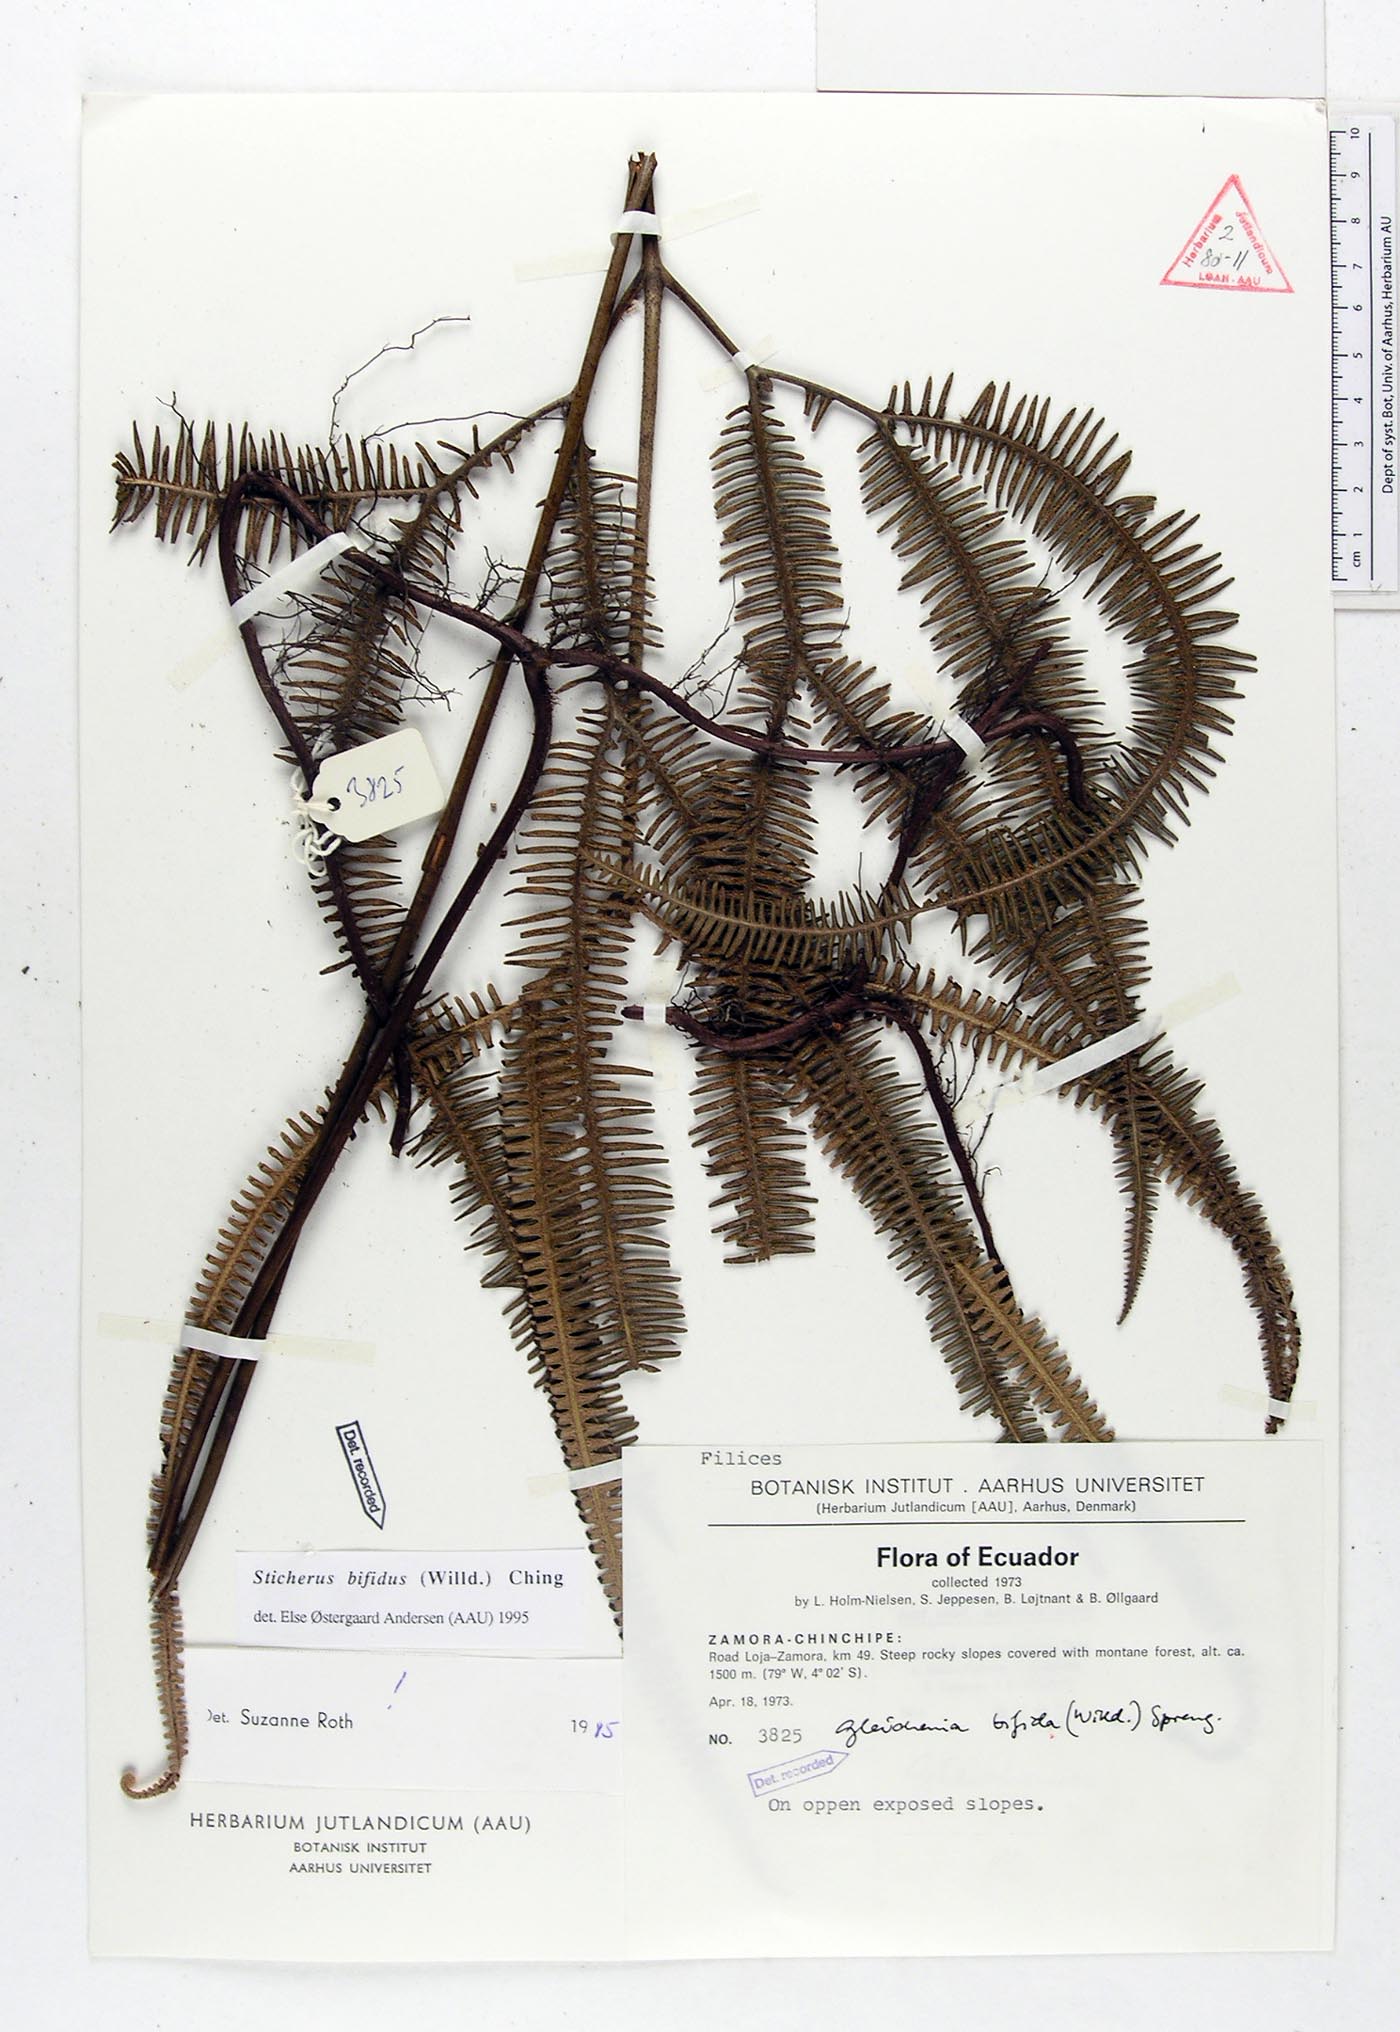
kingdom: Plantae
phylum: Tracheophyta
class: Polypodiopsida
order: Gleicheniales
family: Gleicheniaceae
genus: Sticherus
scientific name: Sticherus bifidus
